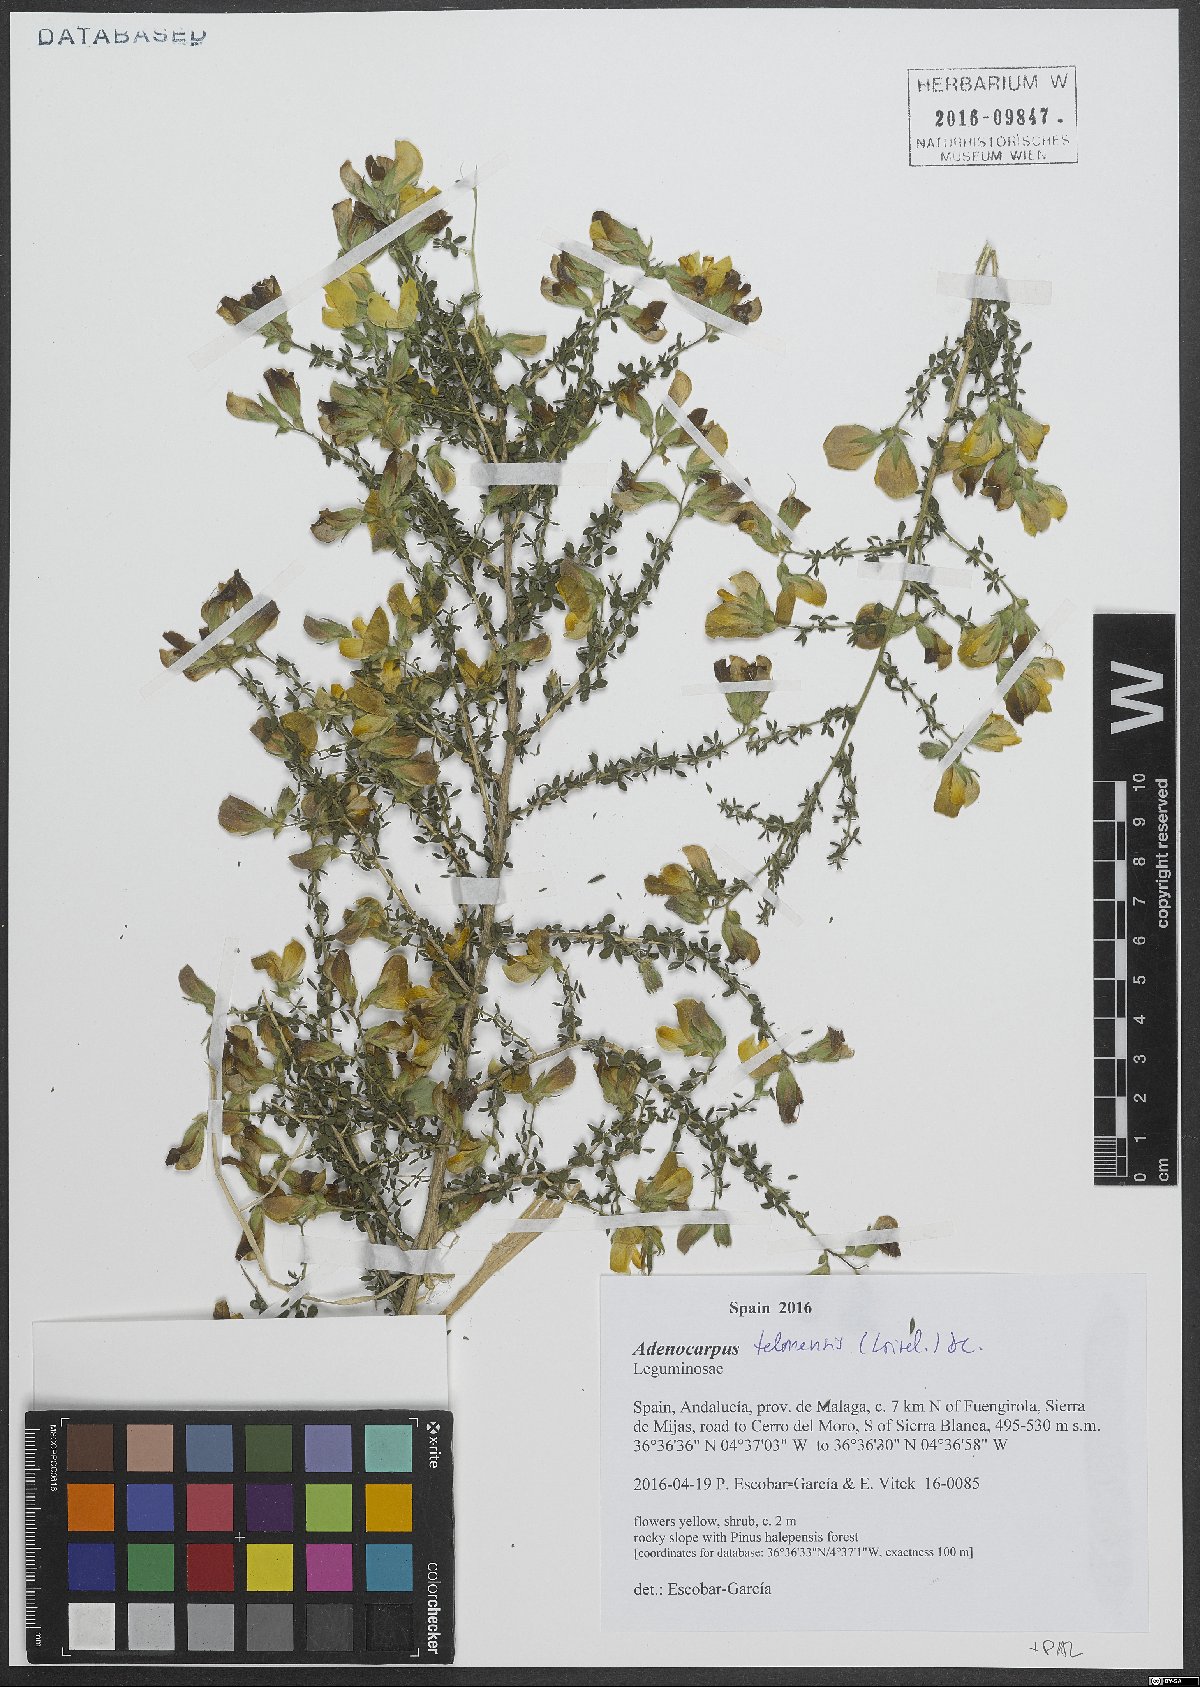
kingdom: Plantae
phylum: Tracheophyta
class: Magnoliopsida
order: Fabales
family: Fabaceae
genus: Adenocarpus
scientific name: Adenocarpus telonensis
